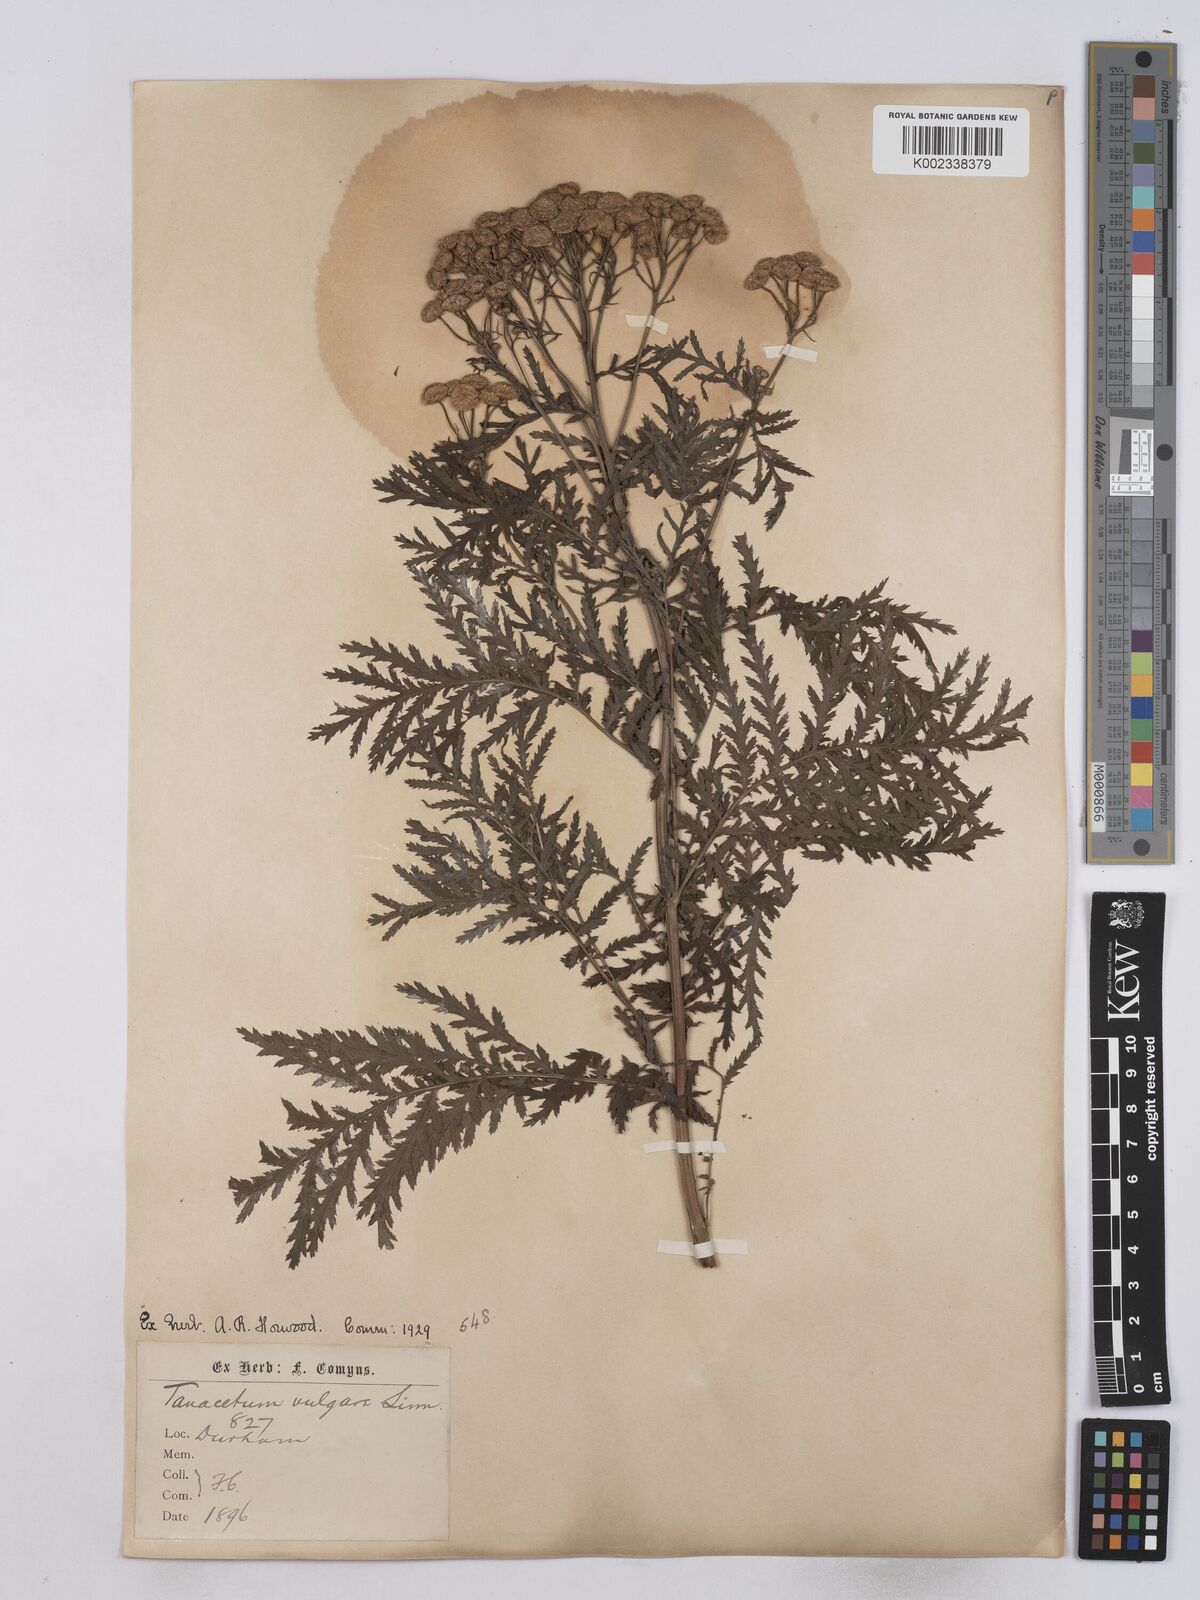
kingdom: Plantae
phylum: Tracheophyta
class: Magnoliopsida
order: Asterales
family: Asteraceae
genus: Tanacetum
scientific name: Tanacetum vulgare
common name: Common tansy
